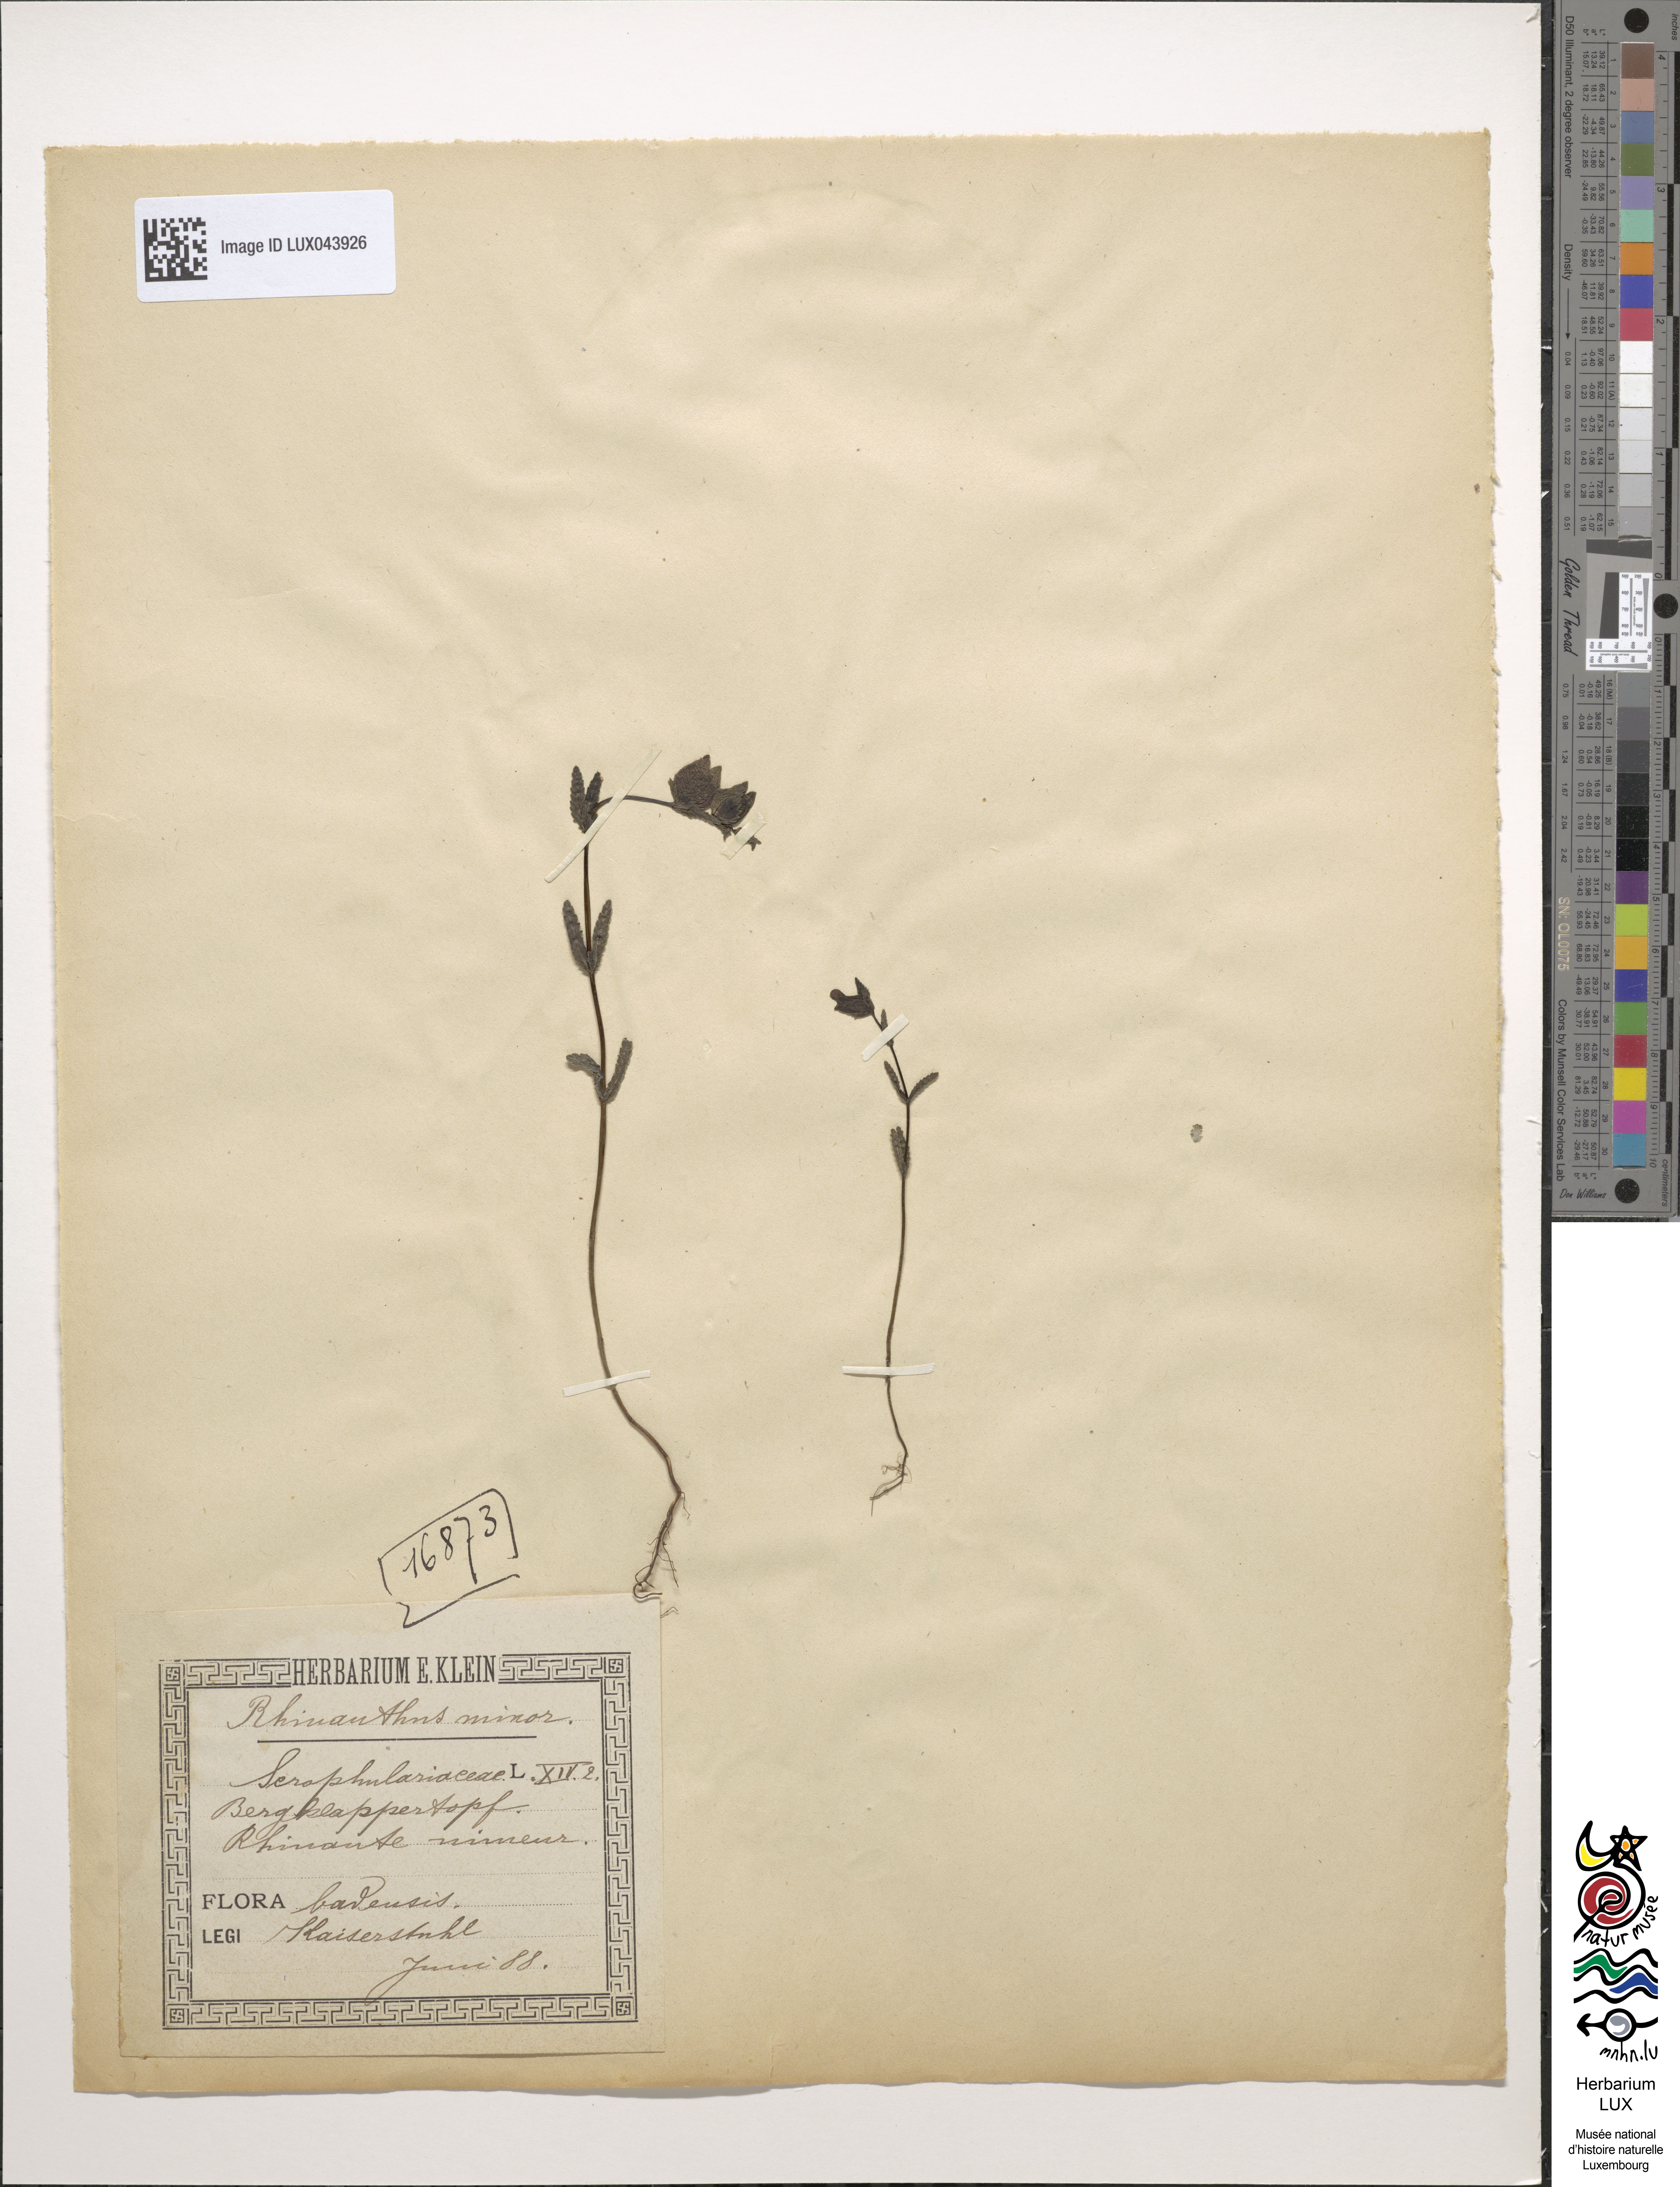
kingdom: Plantae
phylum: Tracheophyta
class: Magnoliopsida
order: Lamiales
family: Orobanchaceae
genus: Rhinanthus
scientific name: Rhinanthus minor
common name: Yellow-rattle
